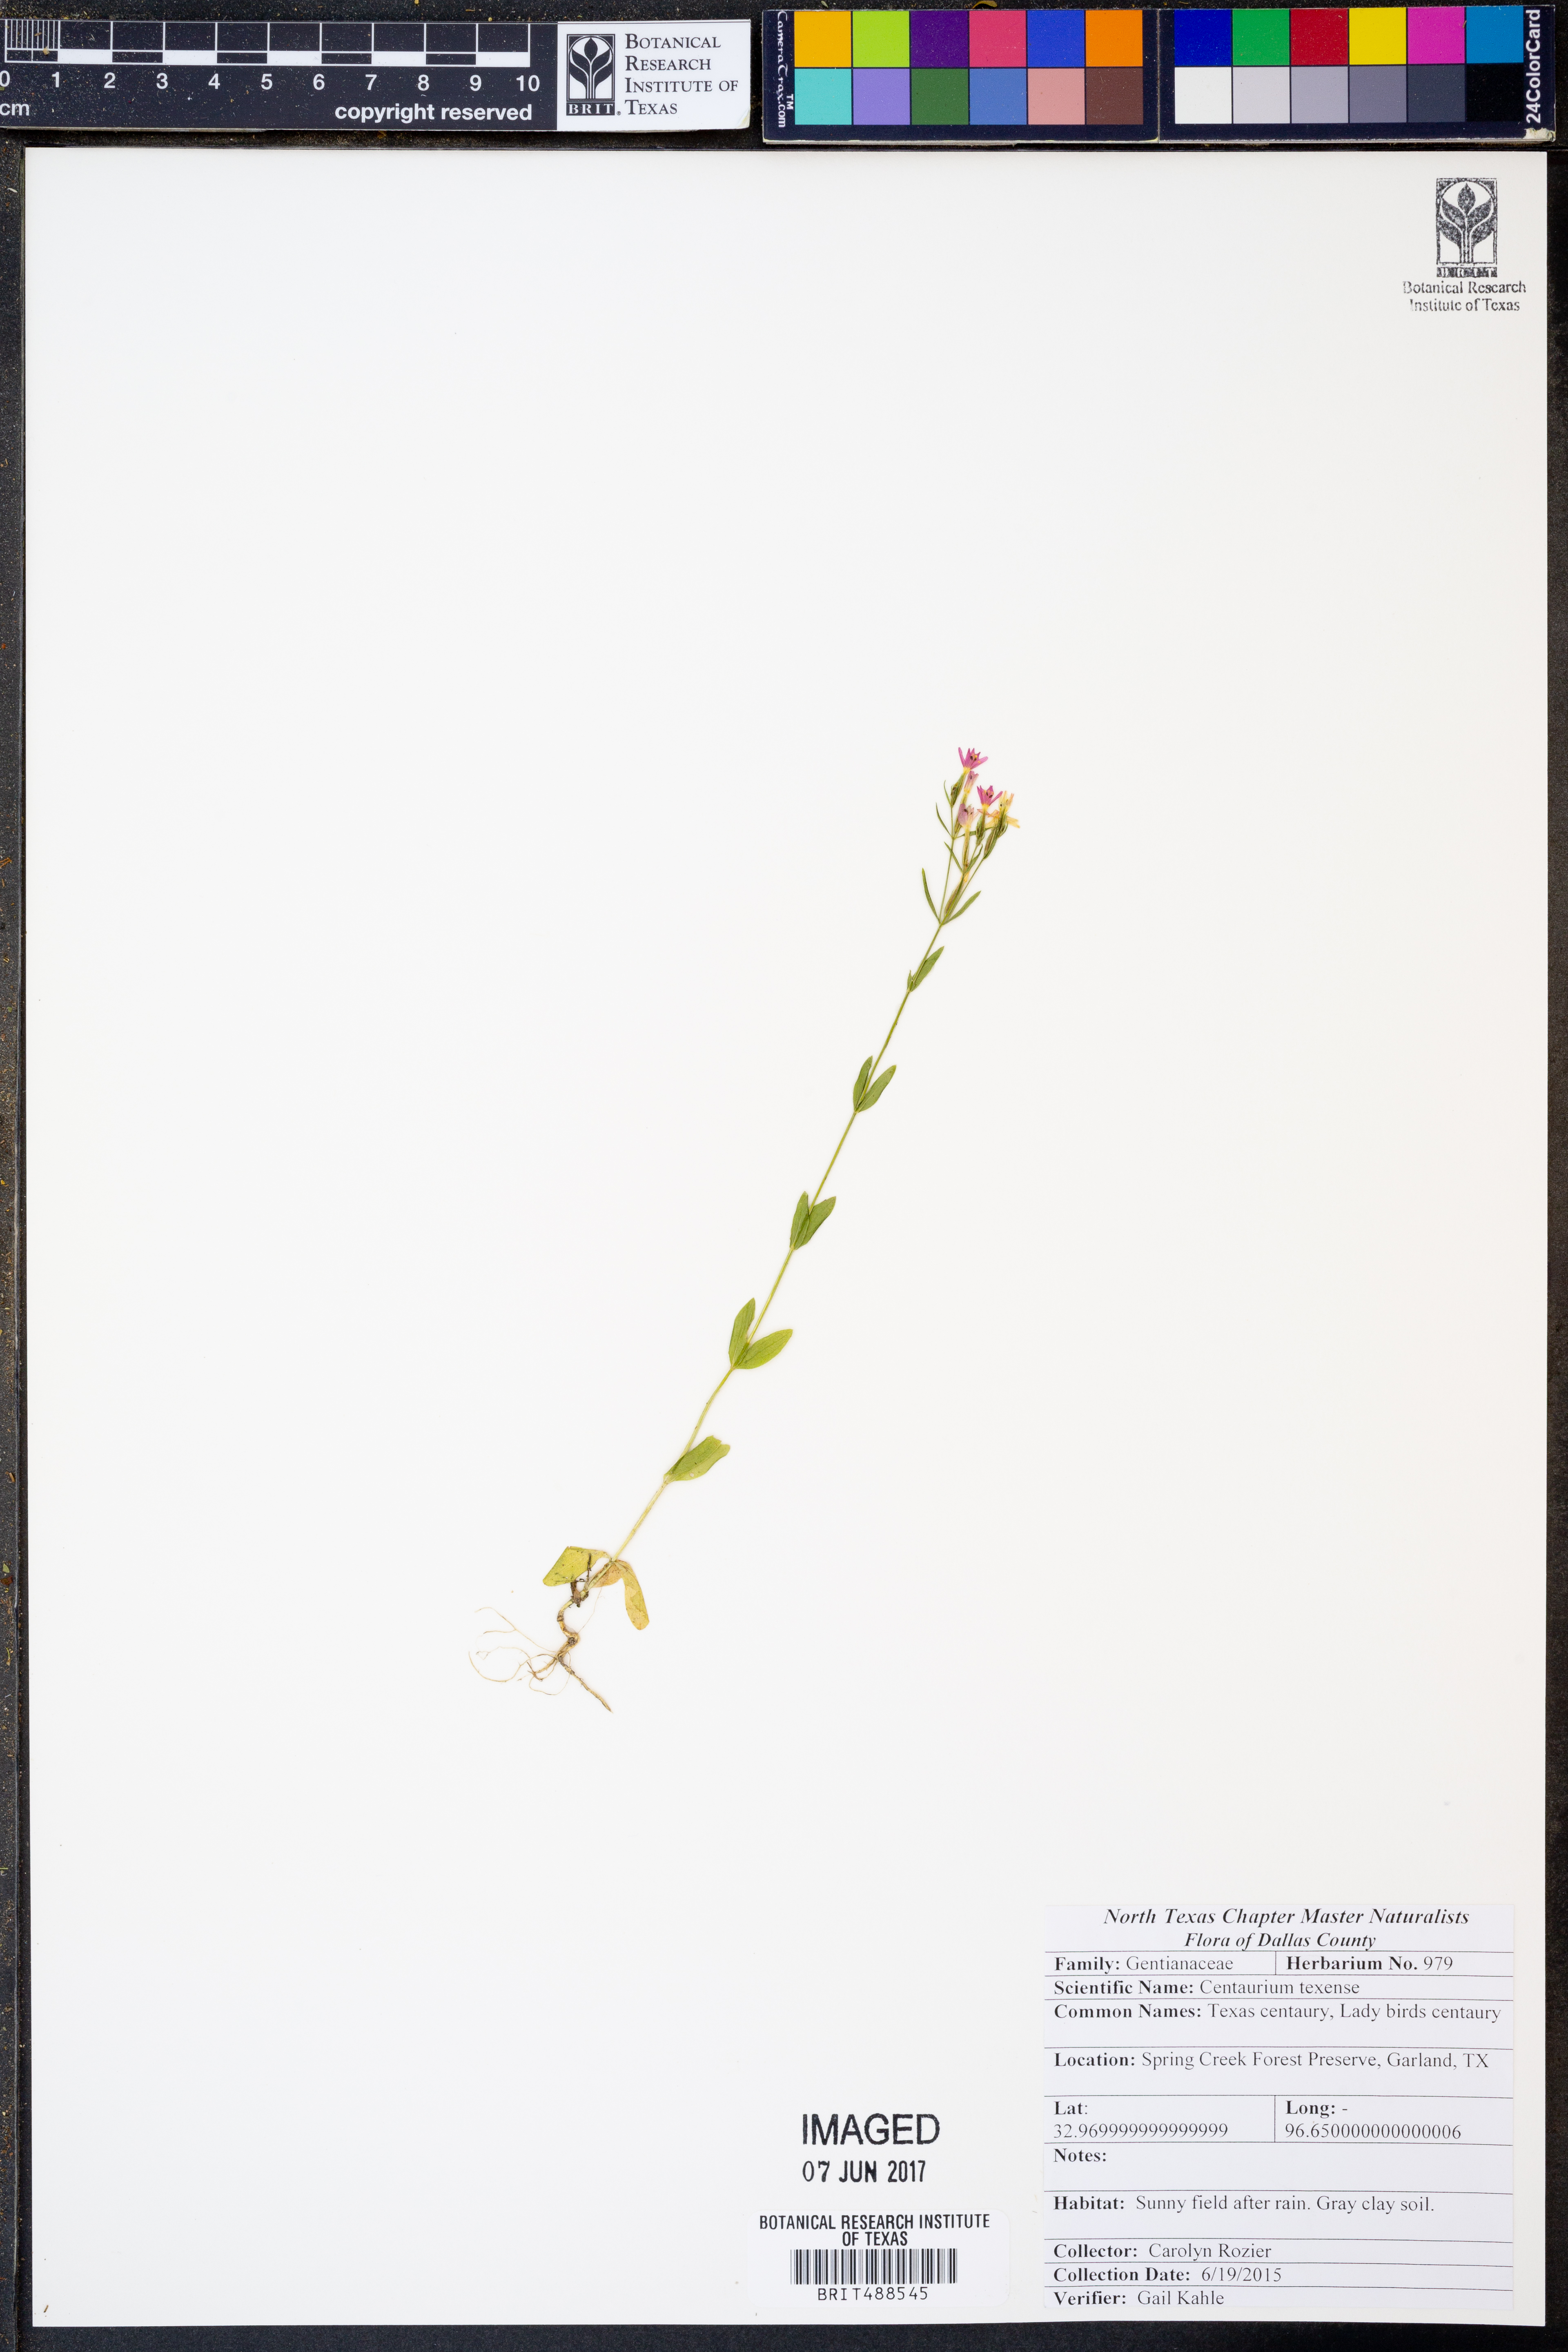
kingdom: Plantae
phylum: Tracheophyta
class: Magnoliopsida
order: Gentianales
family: Gentianaceae
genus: Zeltnera
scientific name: Zeltnera texensis
